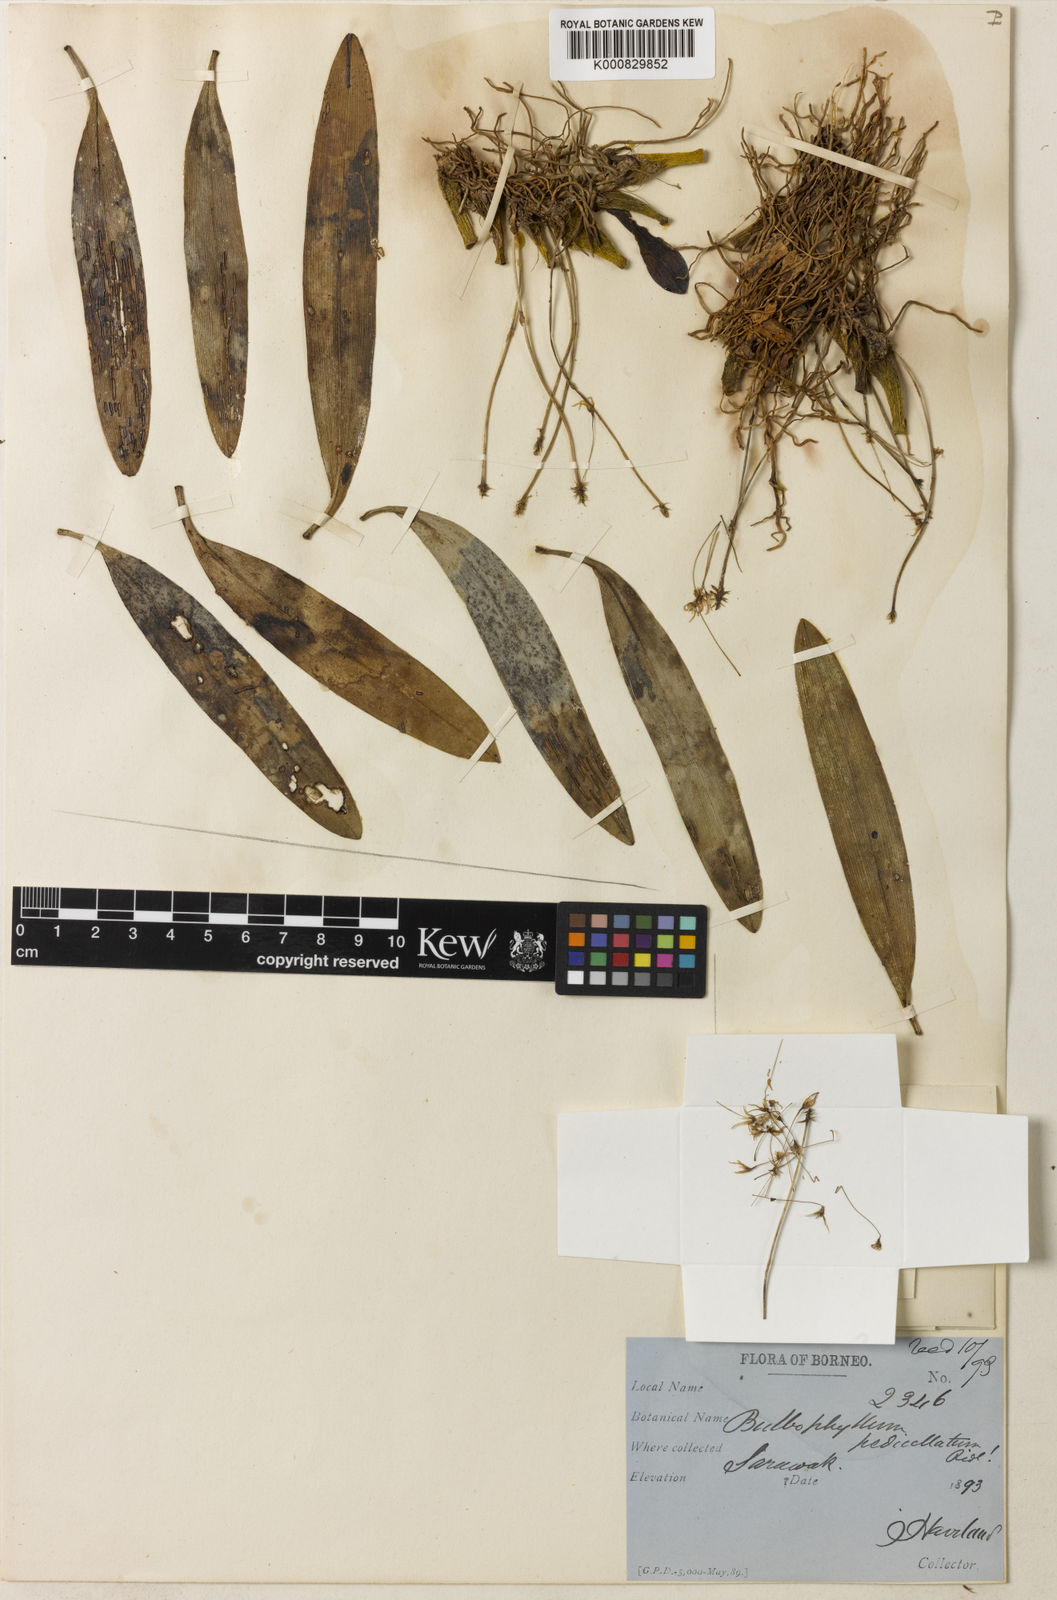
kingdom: Plantae
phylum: Tracheophyta
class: Liliopsida
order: Asparagales
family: Orchidaceae
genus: Bulbophyllum
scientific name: Bulbophyllum laxiflorum
